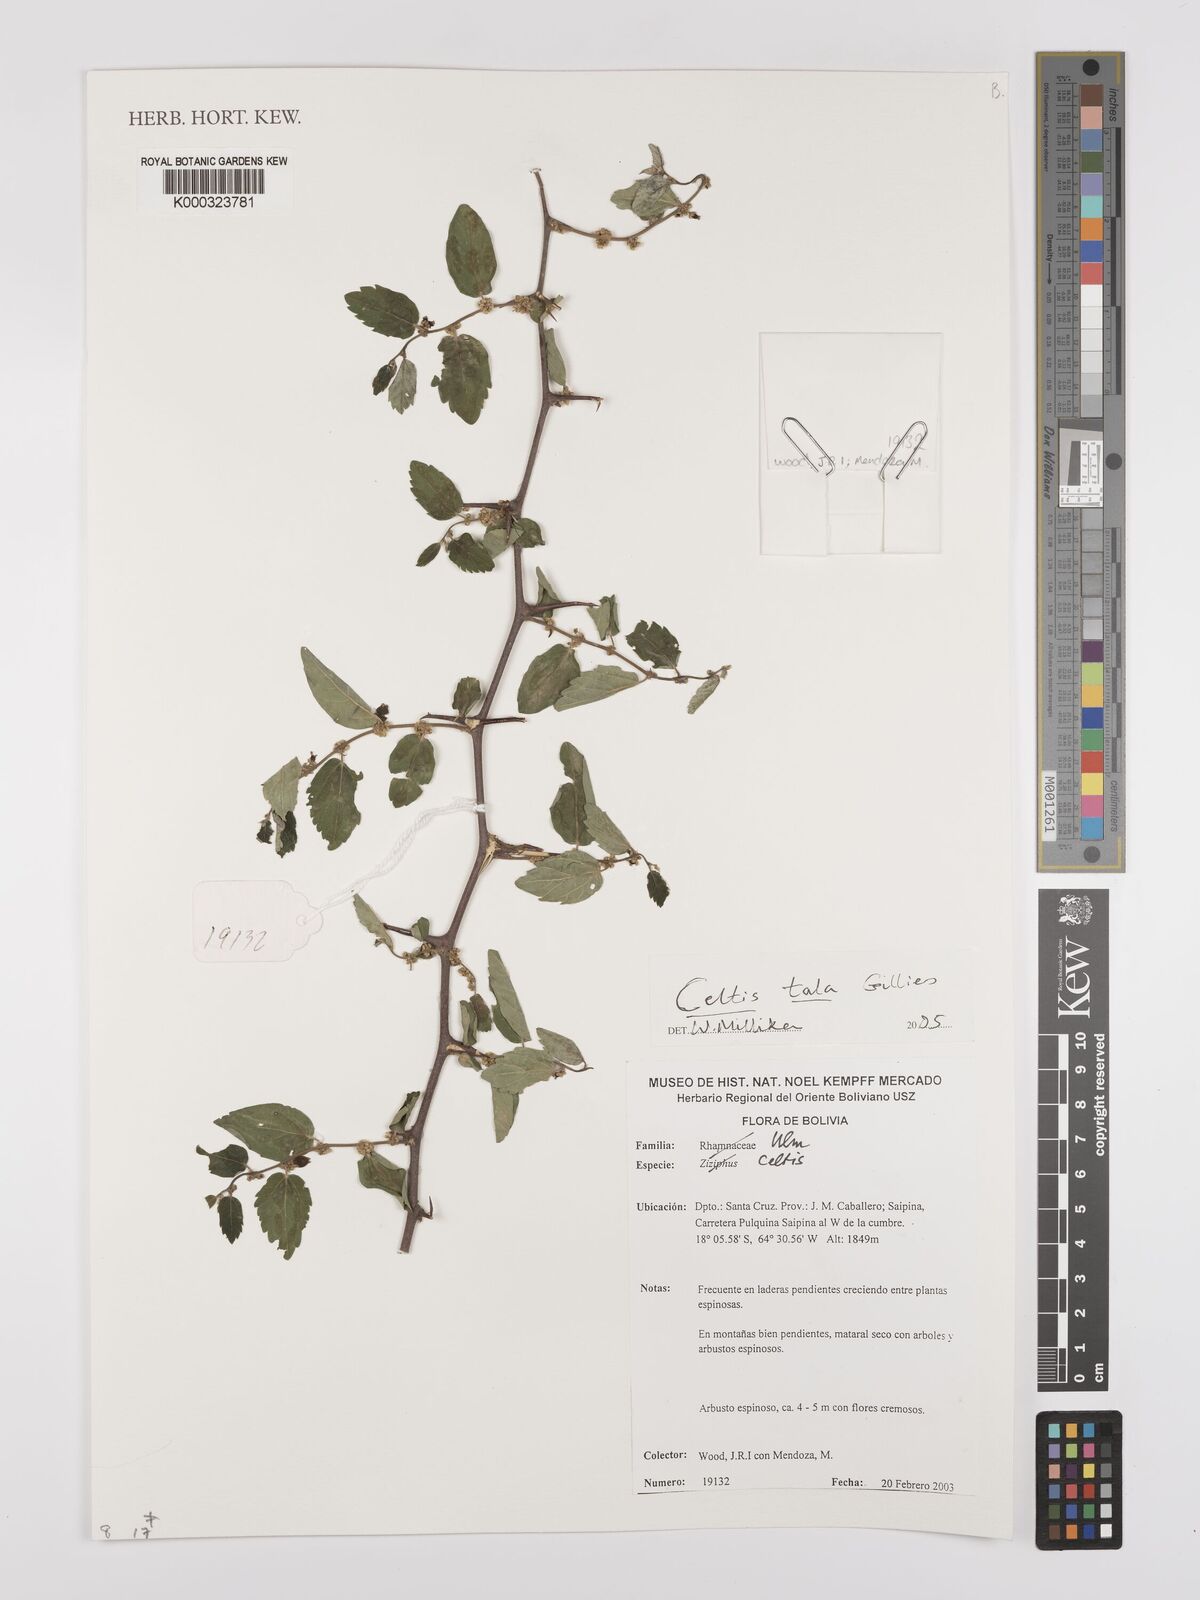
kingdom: Plantae
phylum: Tracheophyta
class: Magnoliopsida
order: Rosales
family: Cannabaceae
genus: Celtis
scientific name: Celtis
